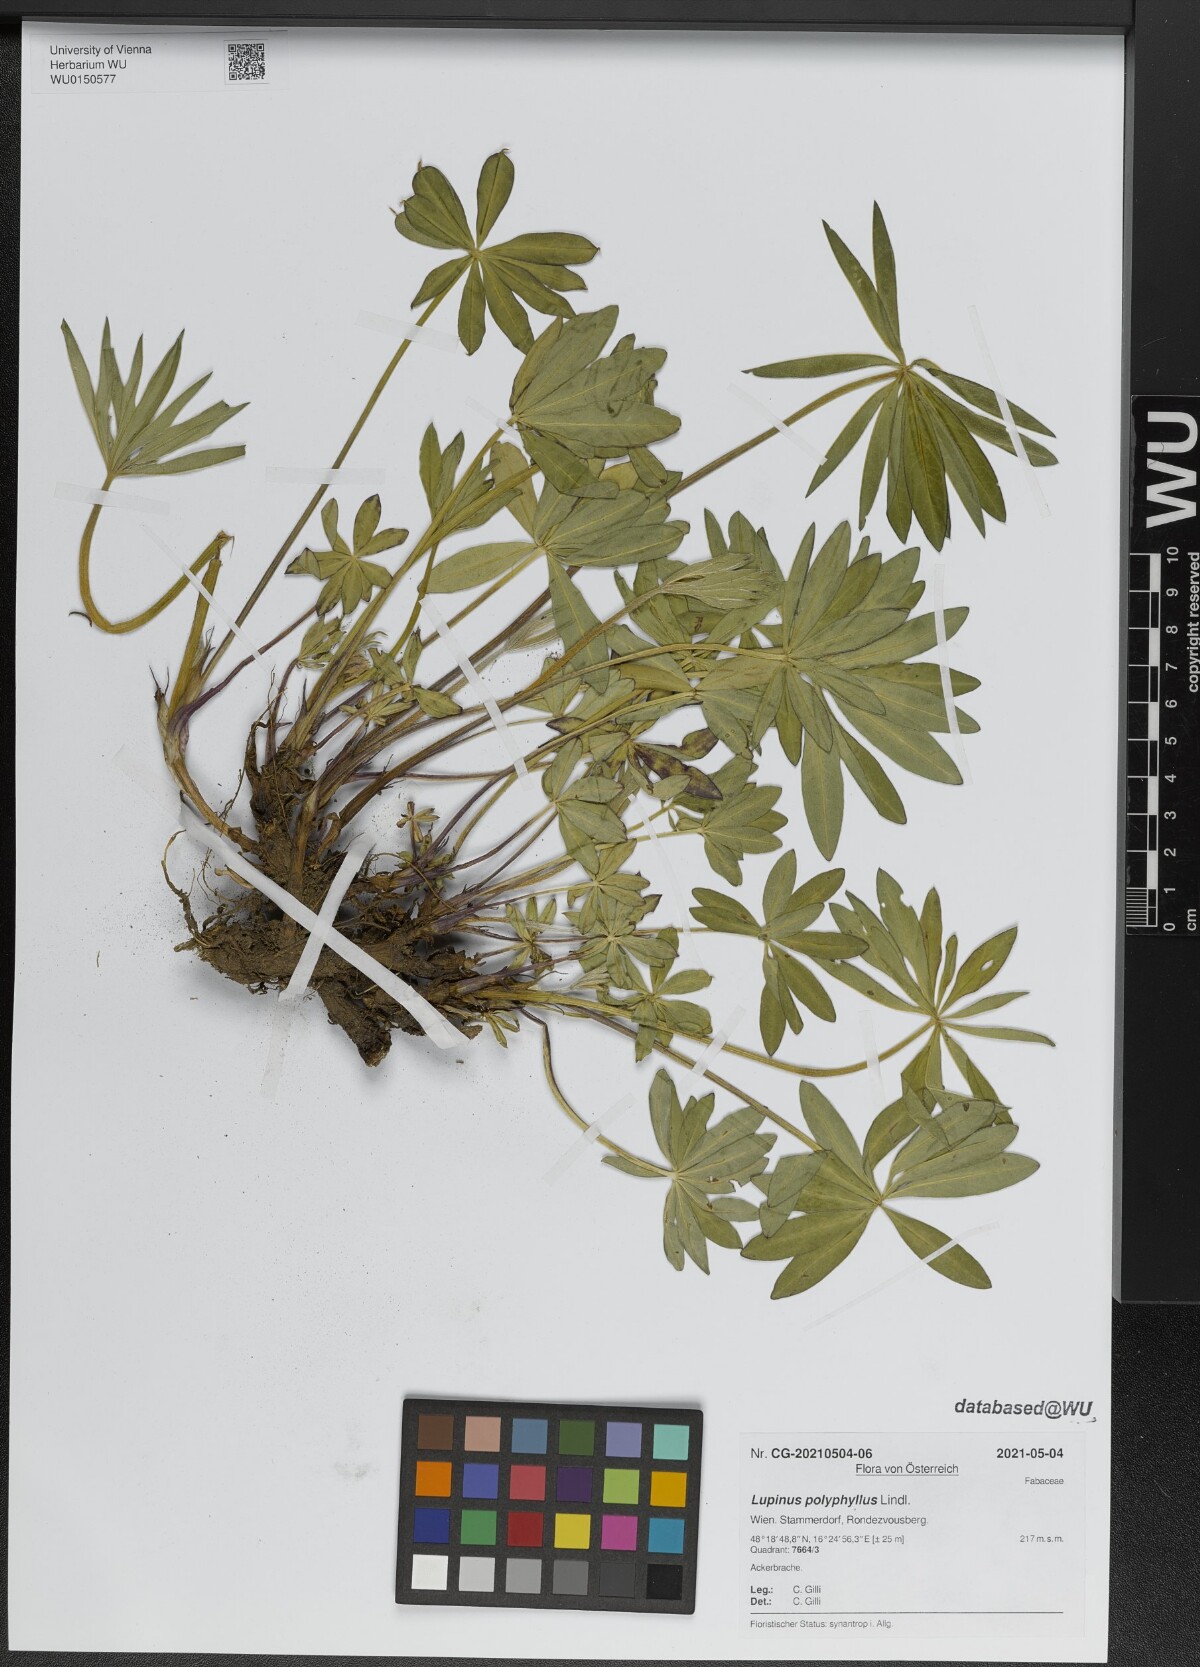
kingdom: Plantae
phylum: Tracheophyta
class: Magnoliopsida
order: Fabales
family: Fabaceae
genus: Lupinus
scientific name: Lupinus polyphyllus
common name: Garden lupin
